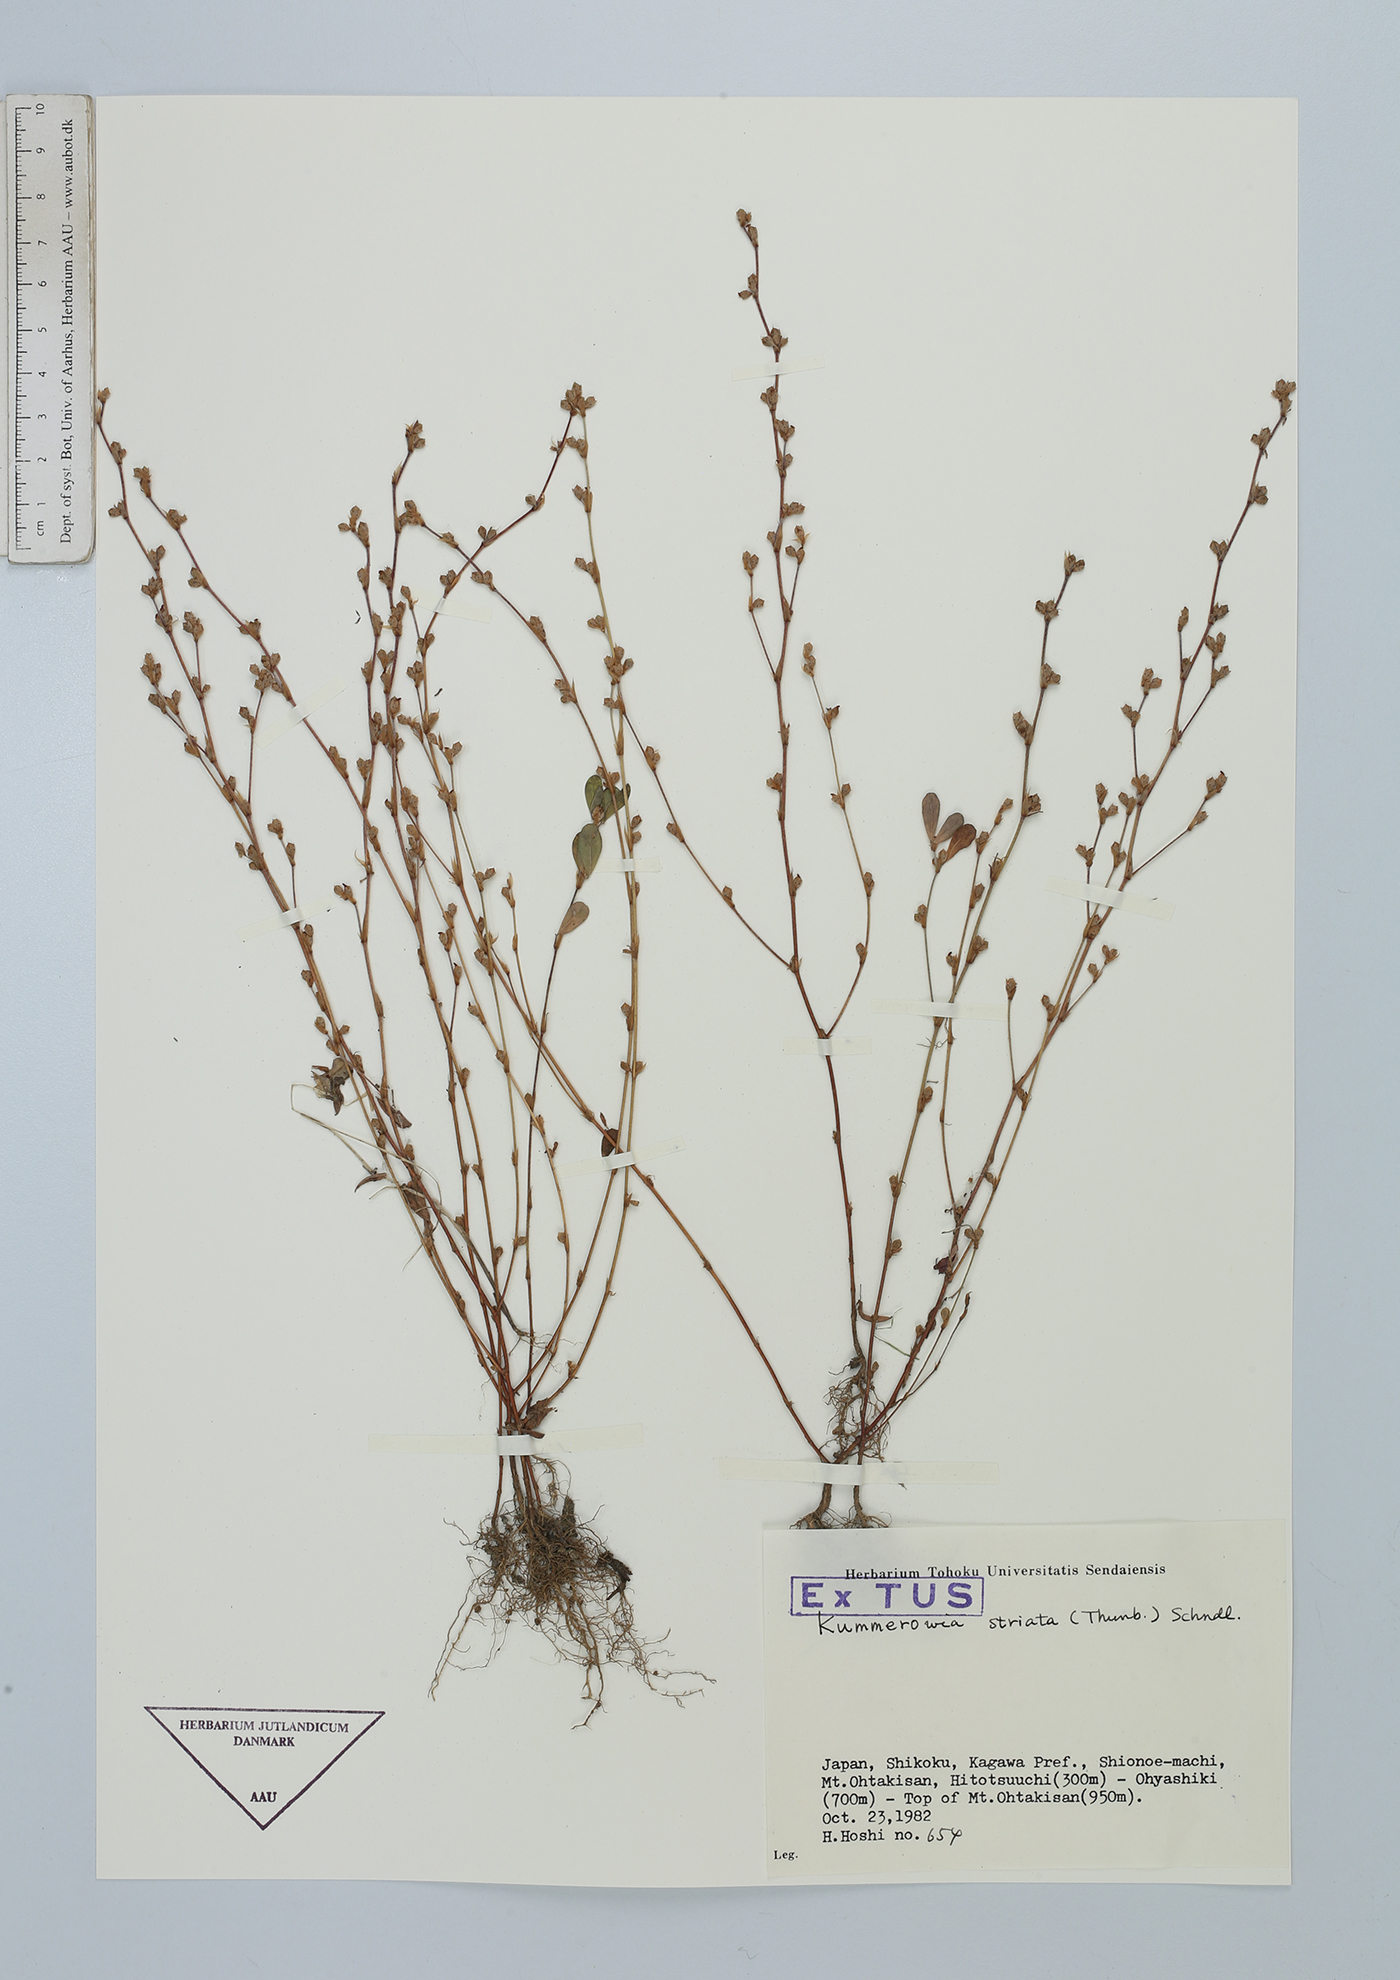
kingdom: Plantae
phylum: Tracheophyta
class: Magnoliopsida
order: Fabales
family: Fabaceae
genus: Kummerowia
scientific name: Kummerowia striata
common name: Japanese clover
